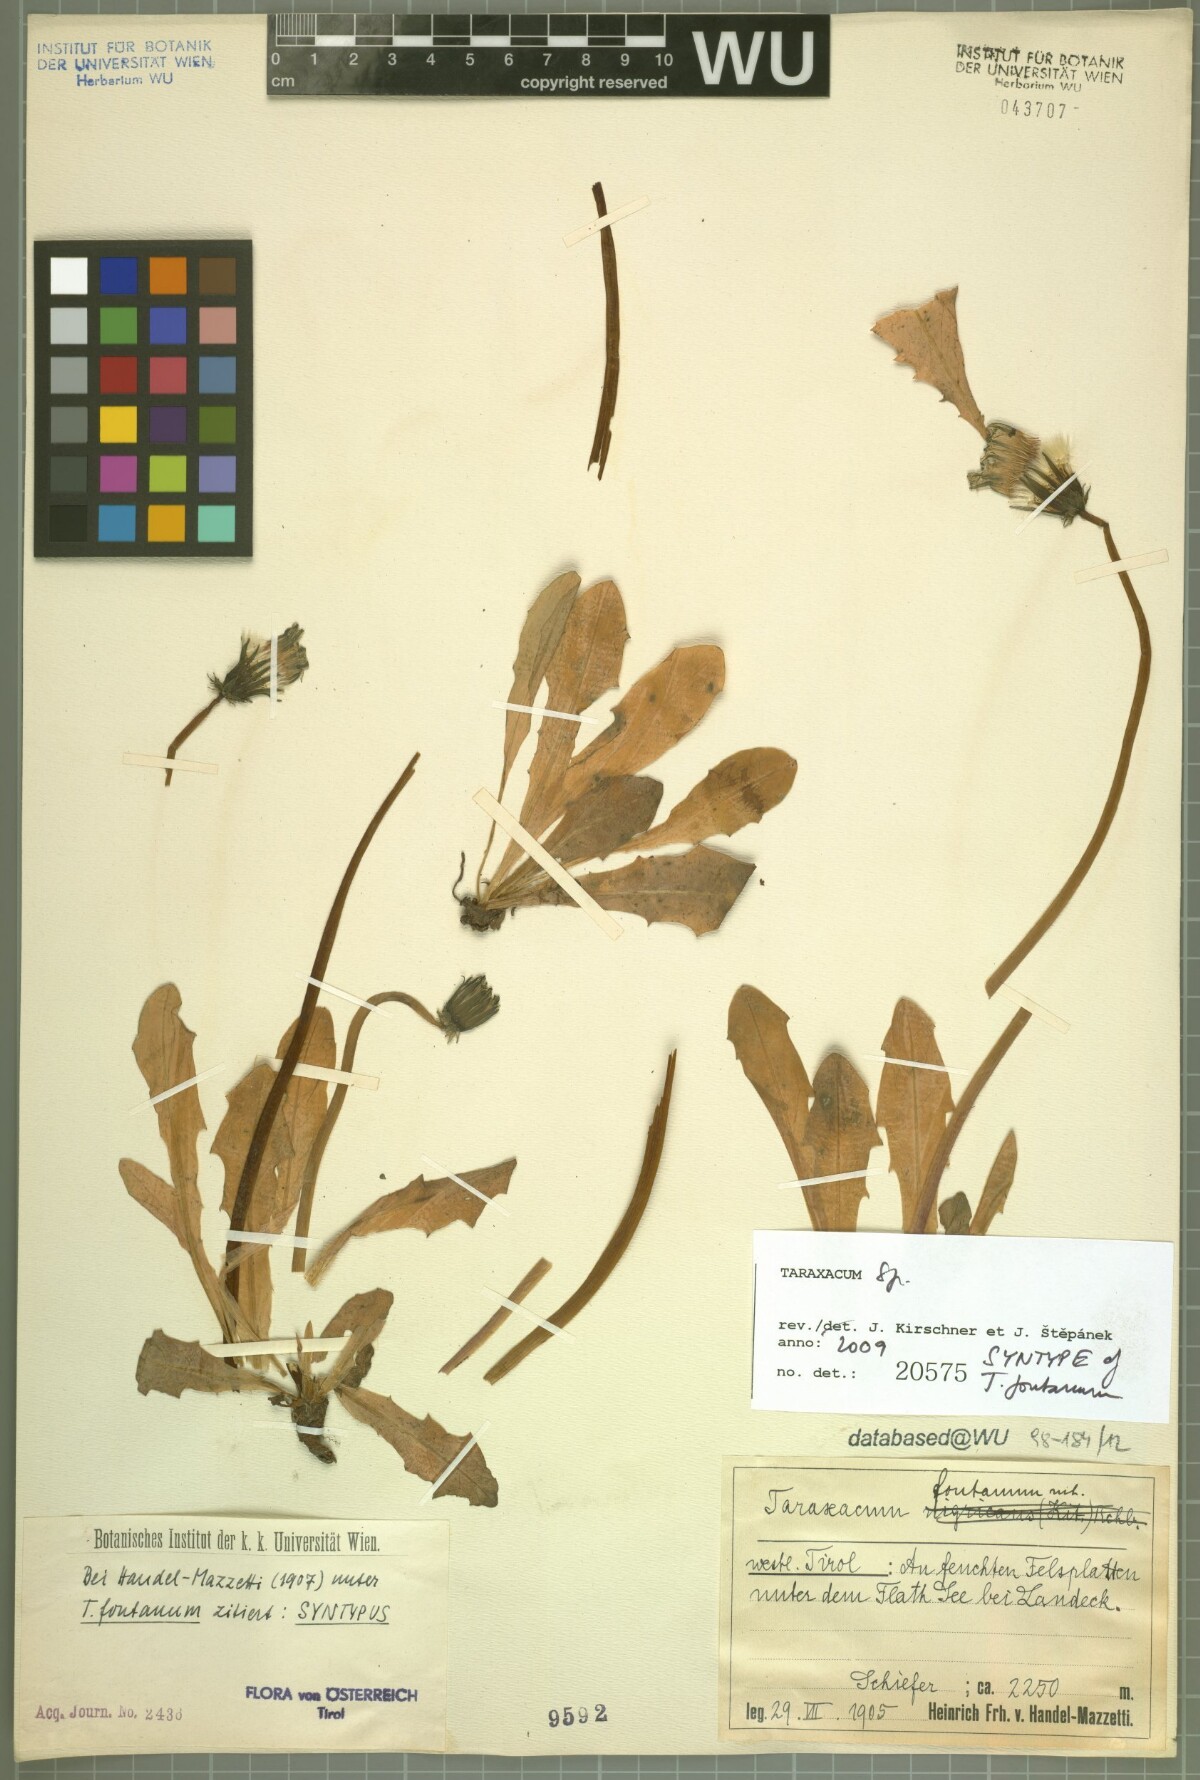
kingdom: Plantae
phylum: Tracheophyta
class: Magnoliopsida
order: Asterales
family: Asteraceae
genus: Taraxacum
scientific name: Taraxacum fontanum
